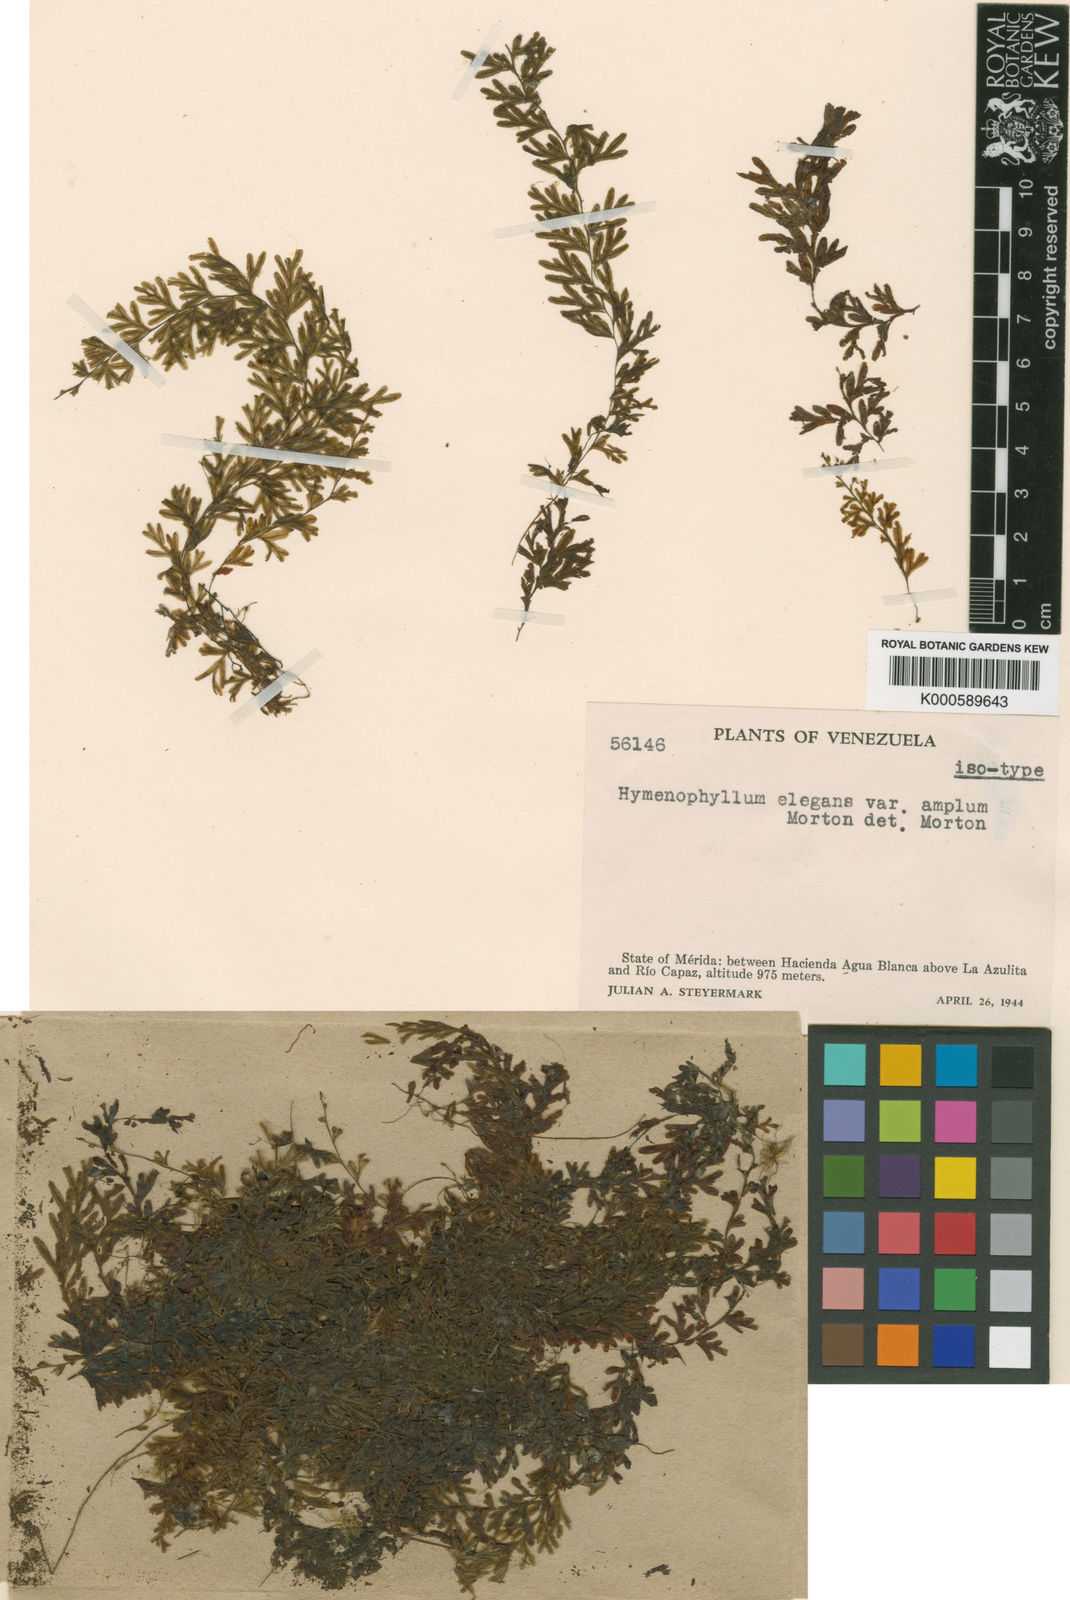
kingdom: Plantae
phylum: Tracheophyta
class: Polypodiopsida
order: Hymenophyllales
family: Hymenophyllaceae
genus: Hymenophyllum
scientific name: Hymenophyllum elegans
